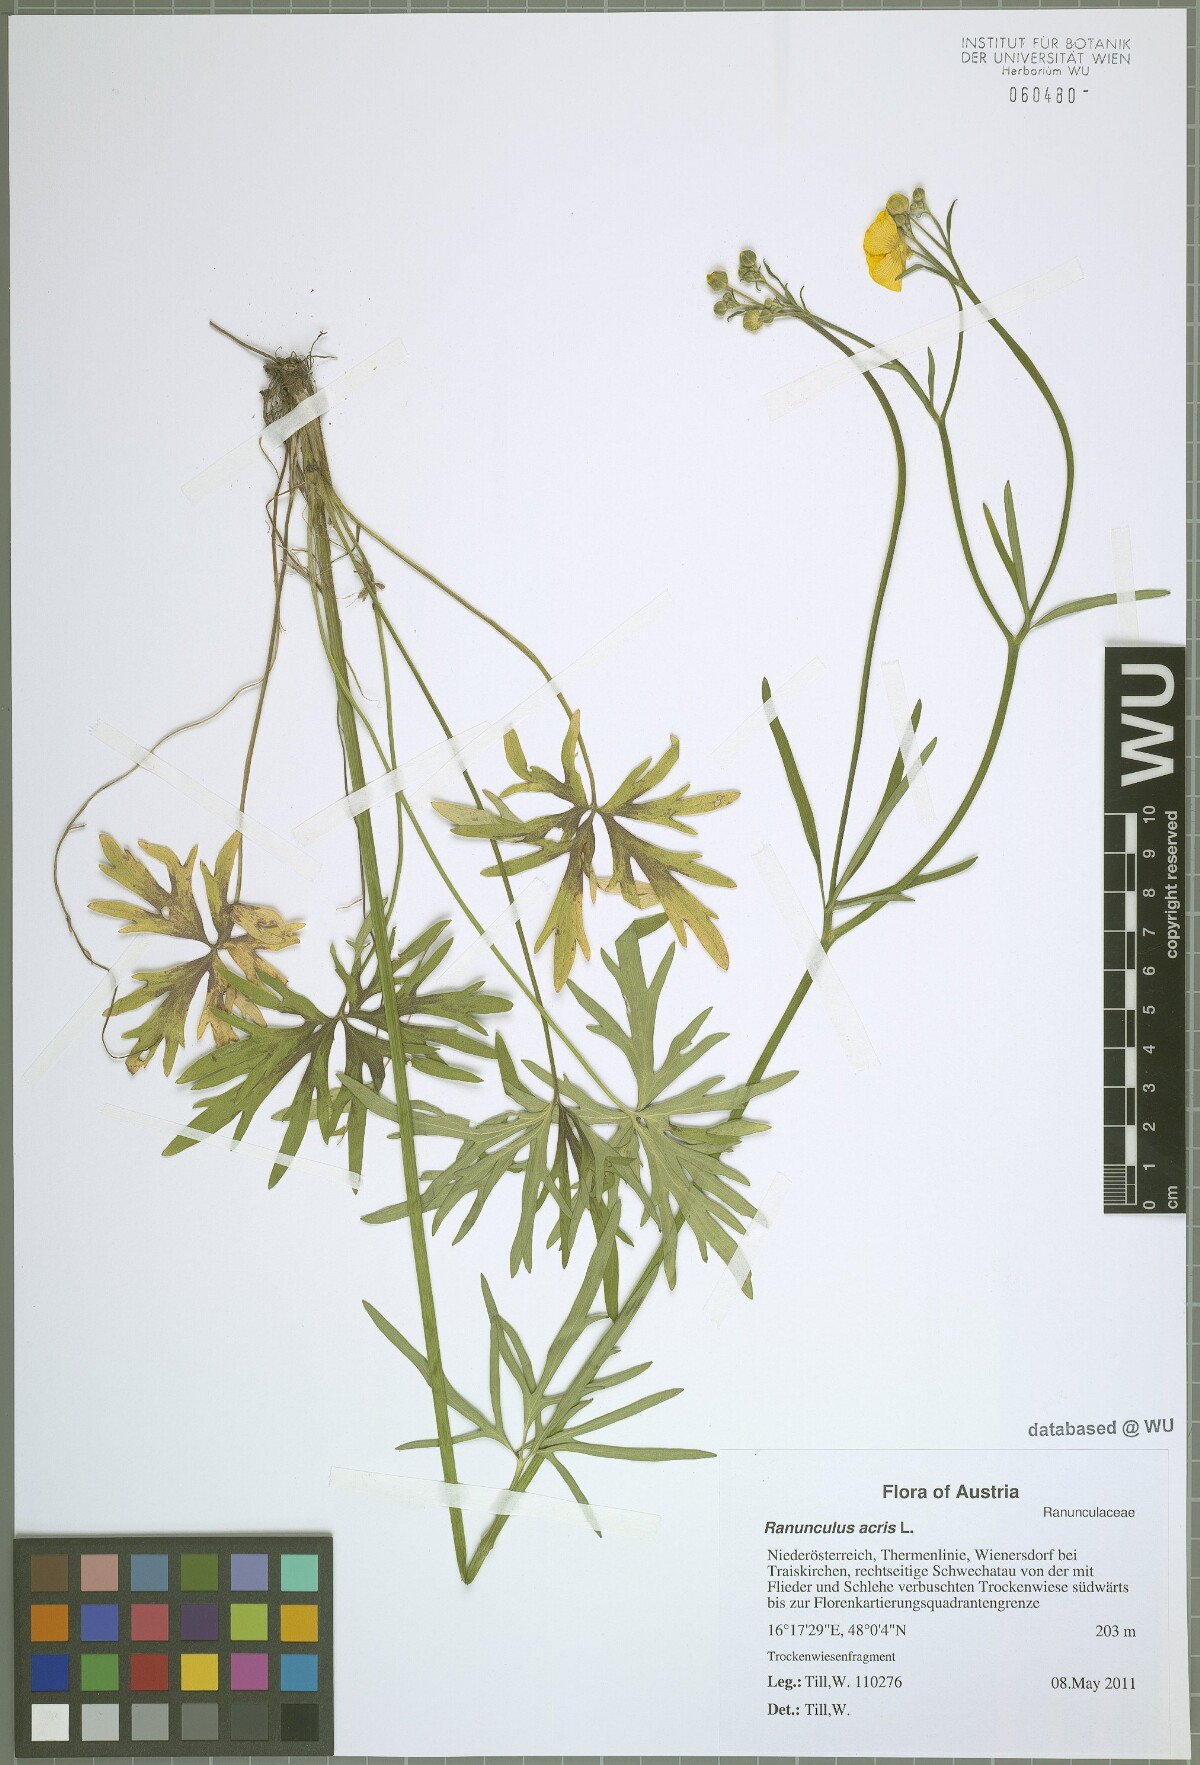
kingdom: Plantae
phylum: Tracheophyta
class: Magnoliopsida
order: Ranunculales
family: Ranunculaceae
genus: Ranunculus
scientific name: Ranunculus acris
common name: Meadow buttercup
